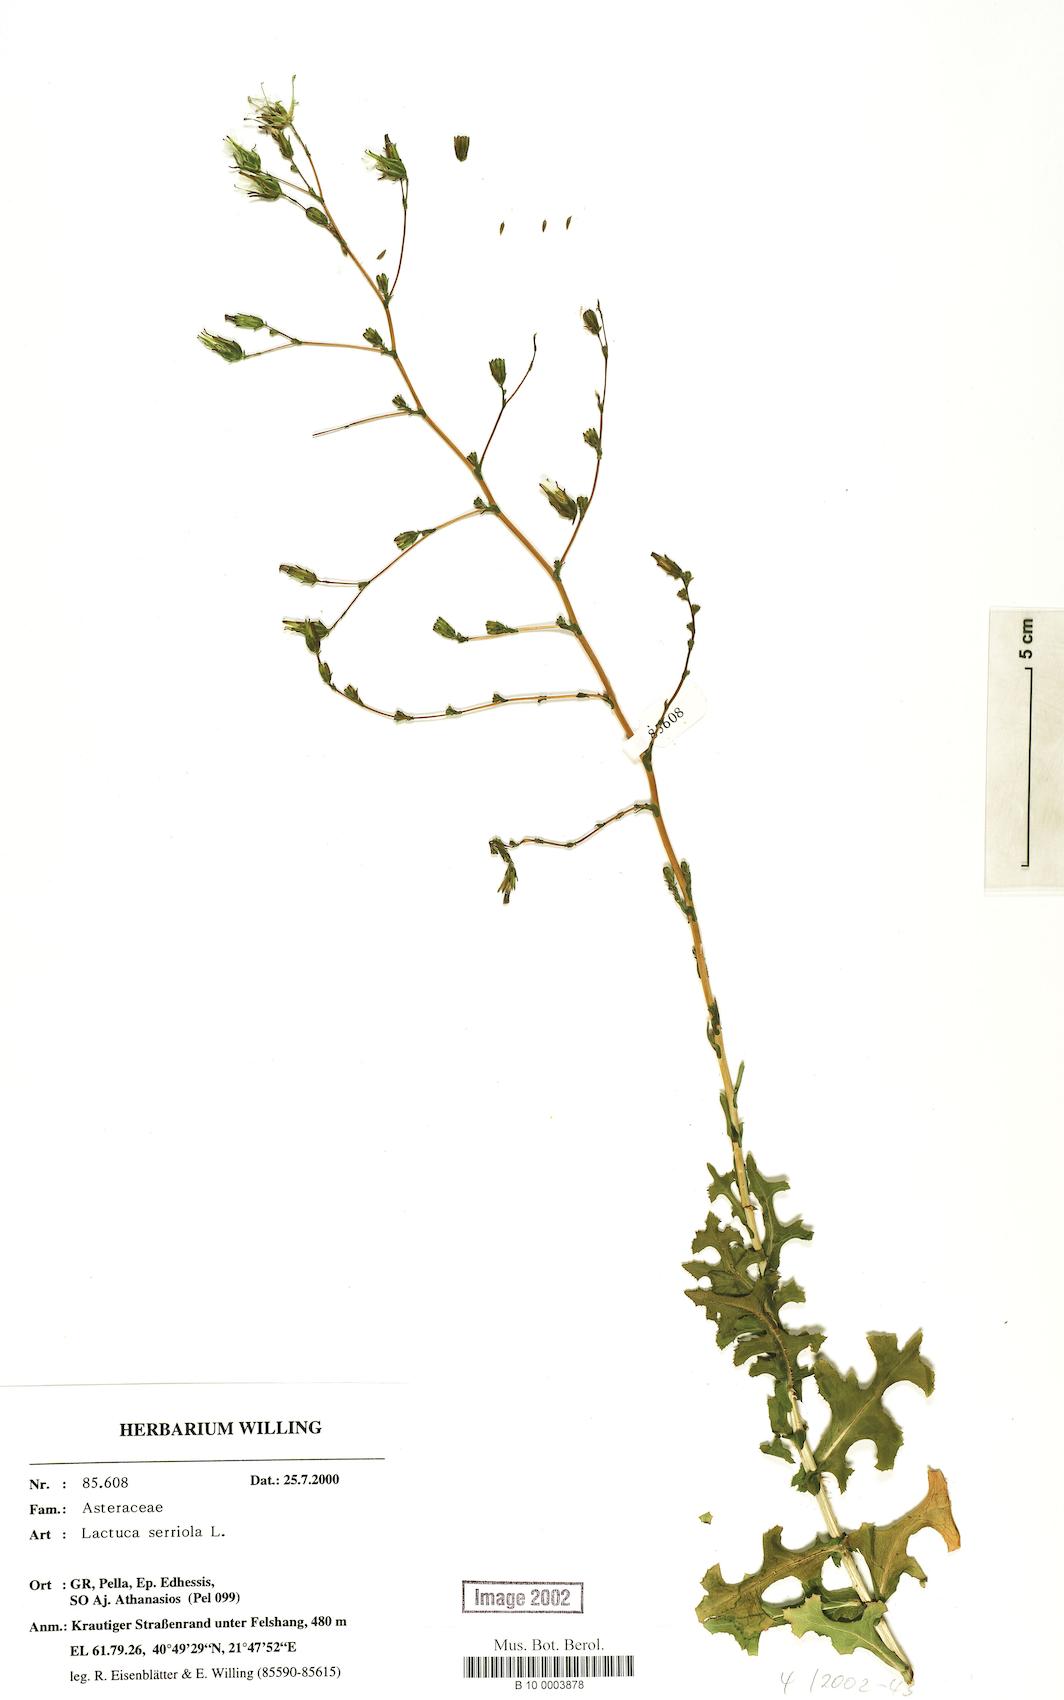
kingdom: Plantae
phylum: Tracheophyta
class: Magnoliopsida
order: Asterales
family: Asteraceae
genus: Lactuca
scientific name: Lactuca serriola
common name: Prickly lettuce
